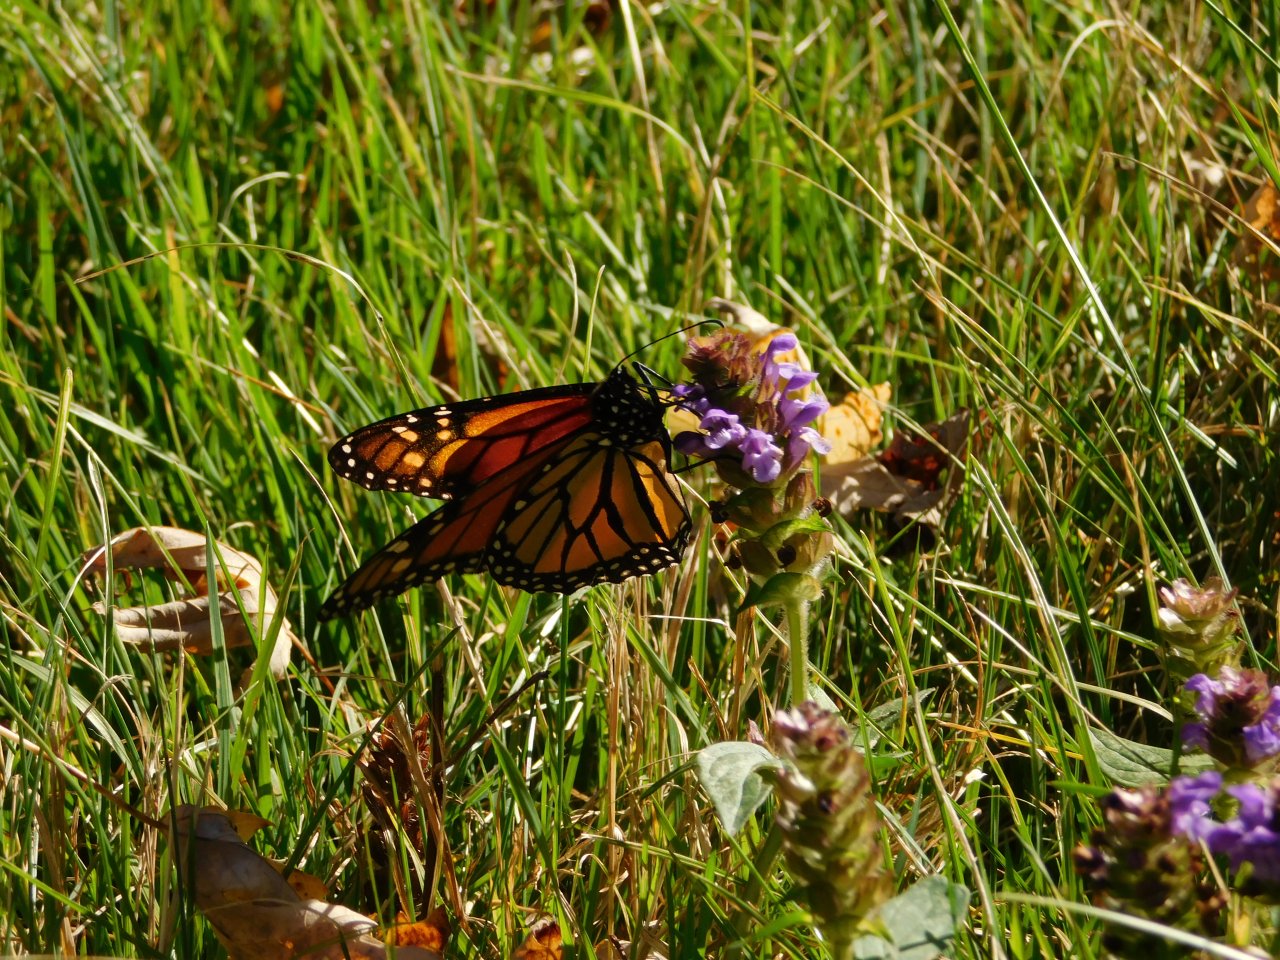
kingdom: Animalia
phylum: Arthropoda
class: Insecta
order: Lepidoptera
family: Nymphalidae
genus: Danaus
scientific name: Danaus plexippus
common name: Monarch
